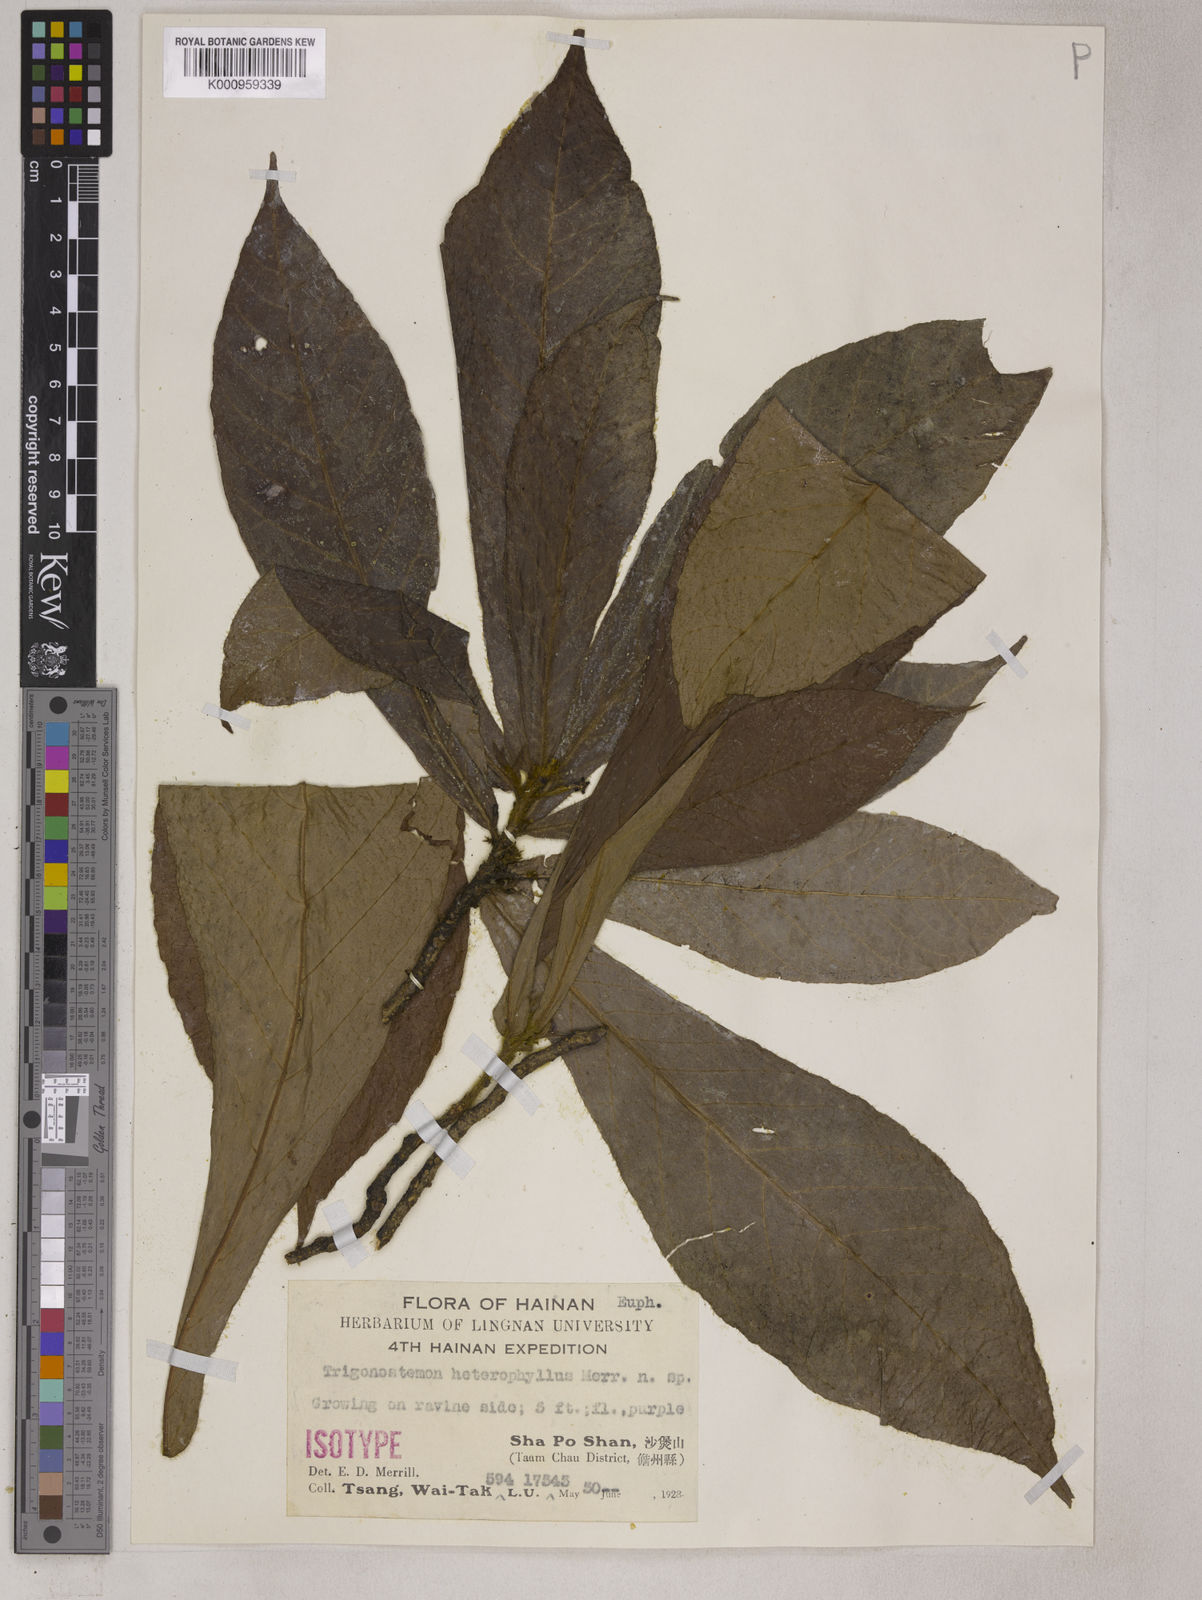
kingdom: Plantae
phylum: Tracheophyta
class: Magnoliopsida
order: Malpighiales
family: Euphorbiaceae
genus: Trigonostemon
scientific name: Trigonostemon flavidus
